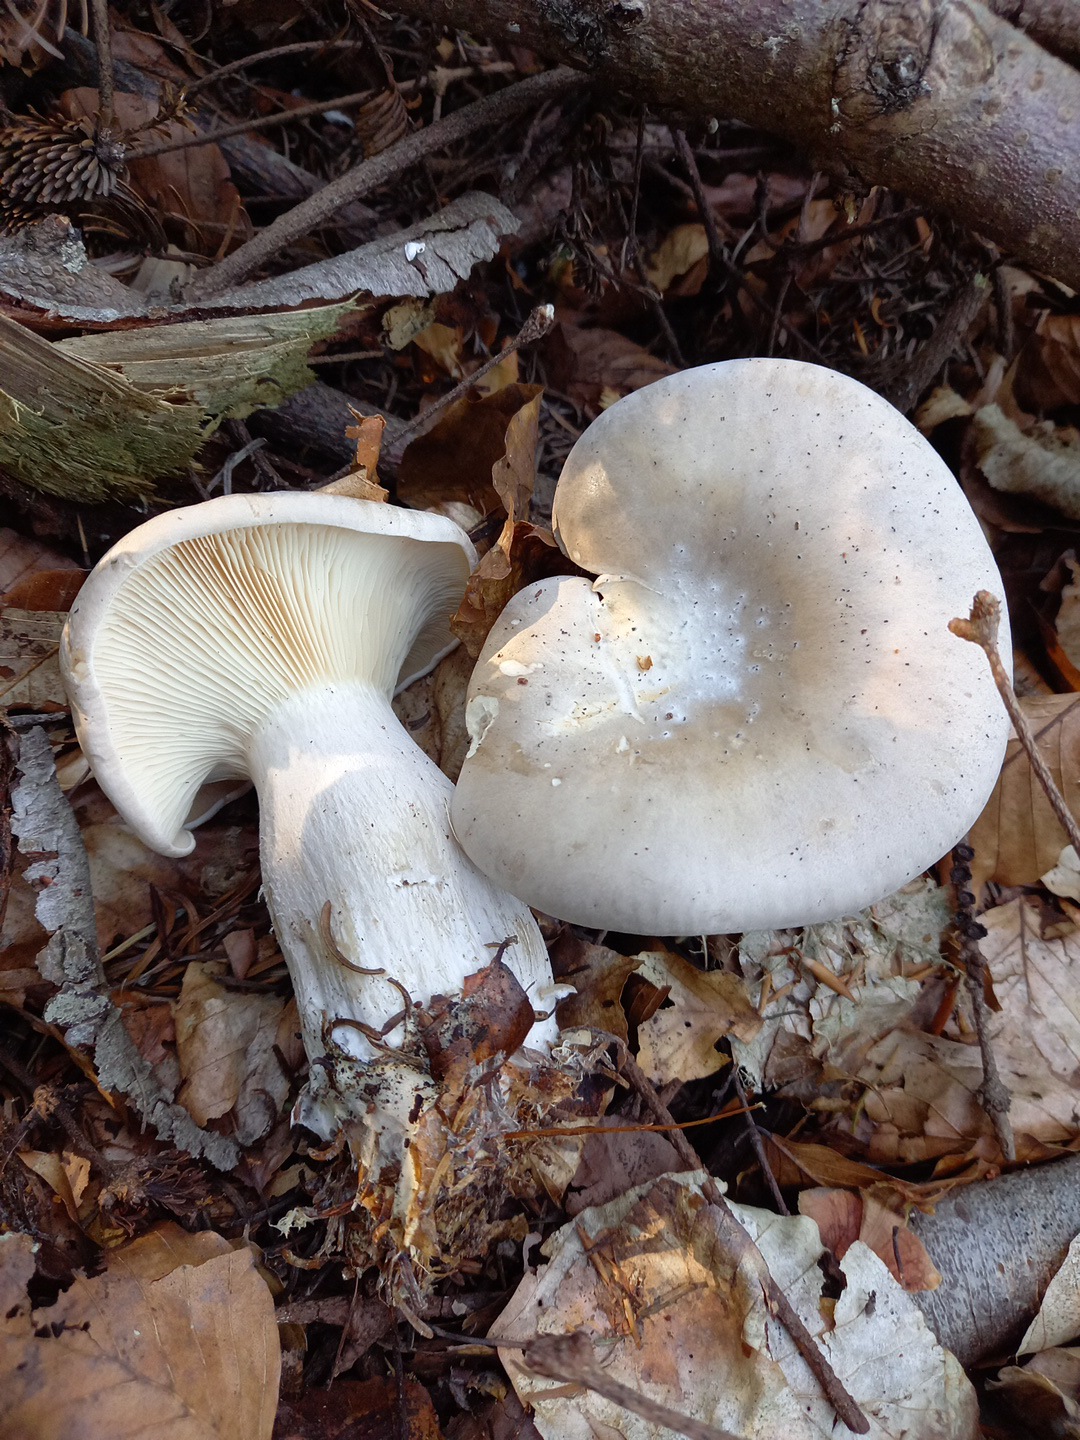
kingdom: Fungi
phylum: Basidiomycota
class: Agaricomycetes
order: Agaricales
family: Tricholomataceae
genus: Clitocybe
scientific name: Clitocybe nebularis
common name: tåge-tragthat
